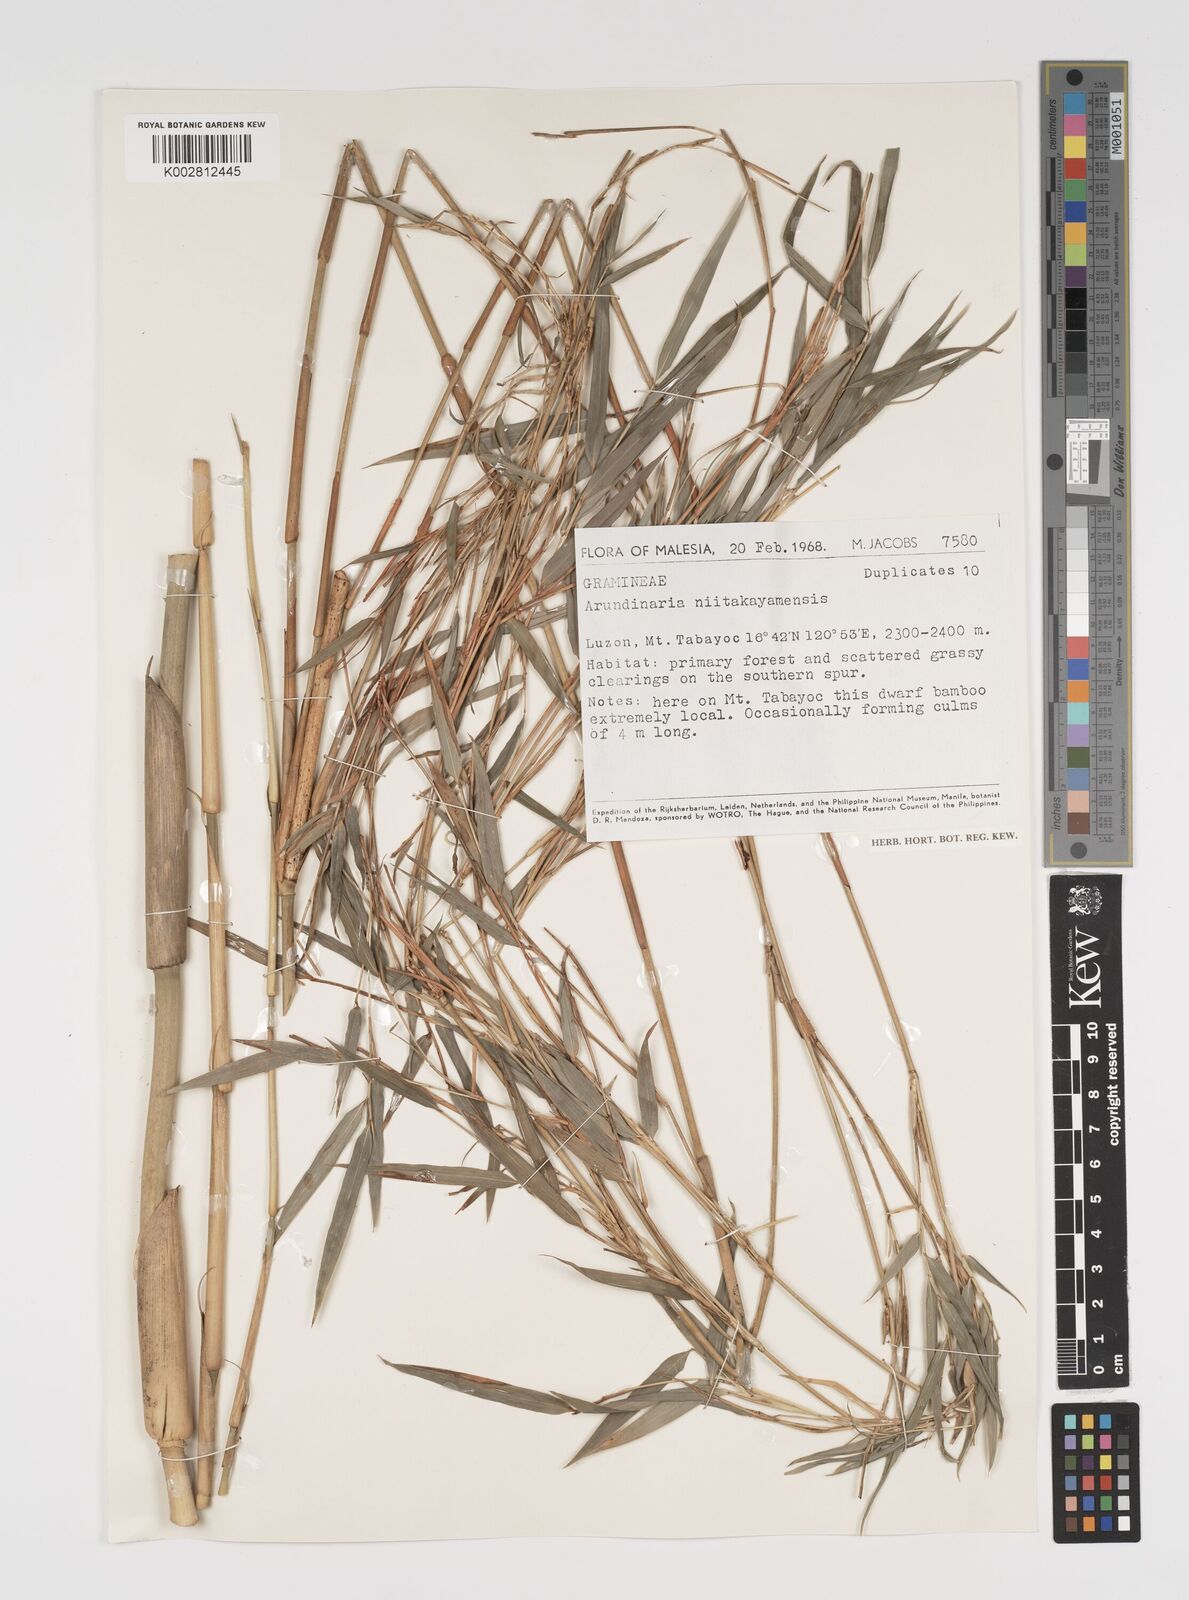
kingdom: Plantae
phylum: Tracheophyta
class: Liliopsida
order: Poales
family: Poaceae
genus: Yushania
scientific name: Yushania niitakayamensis
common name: Yushan cane
